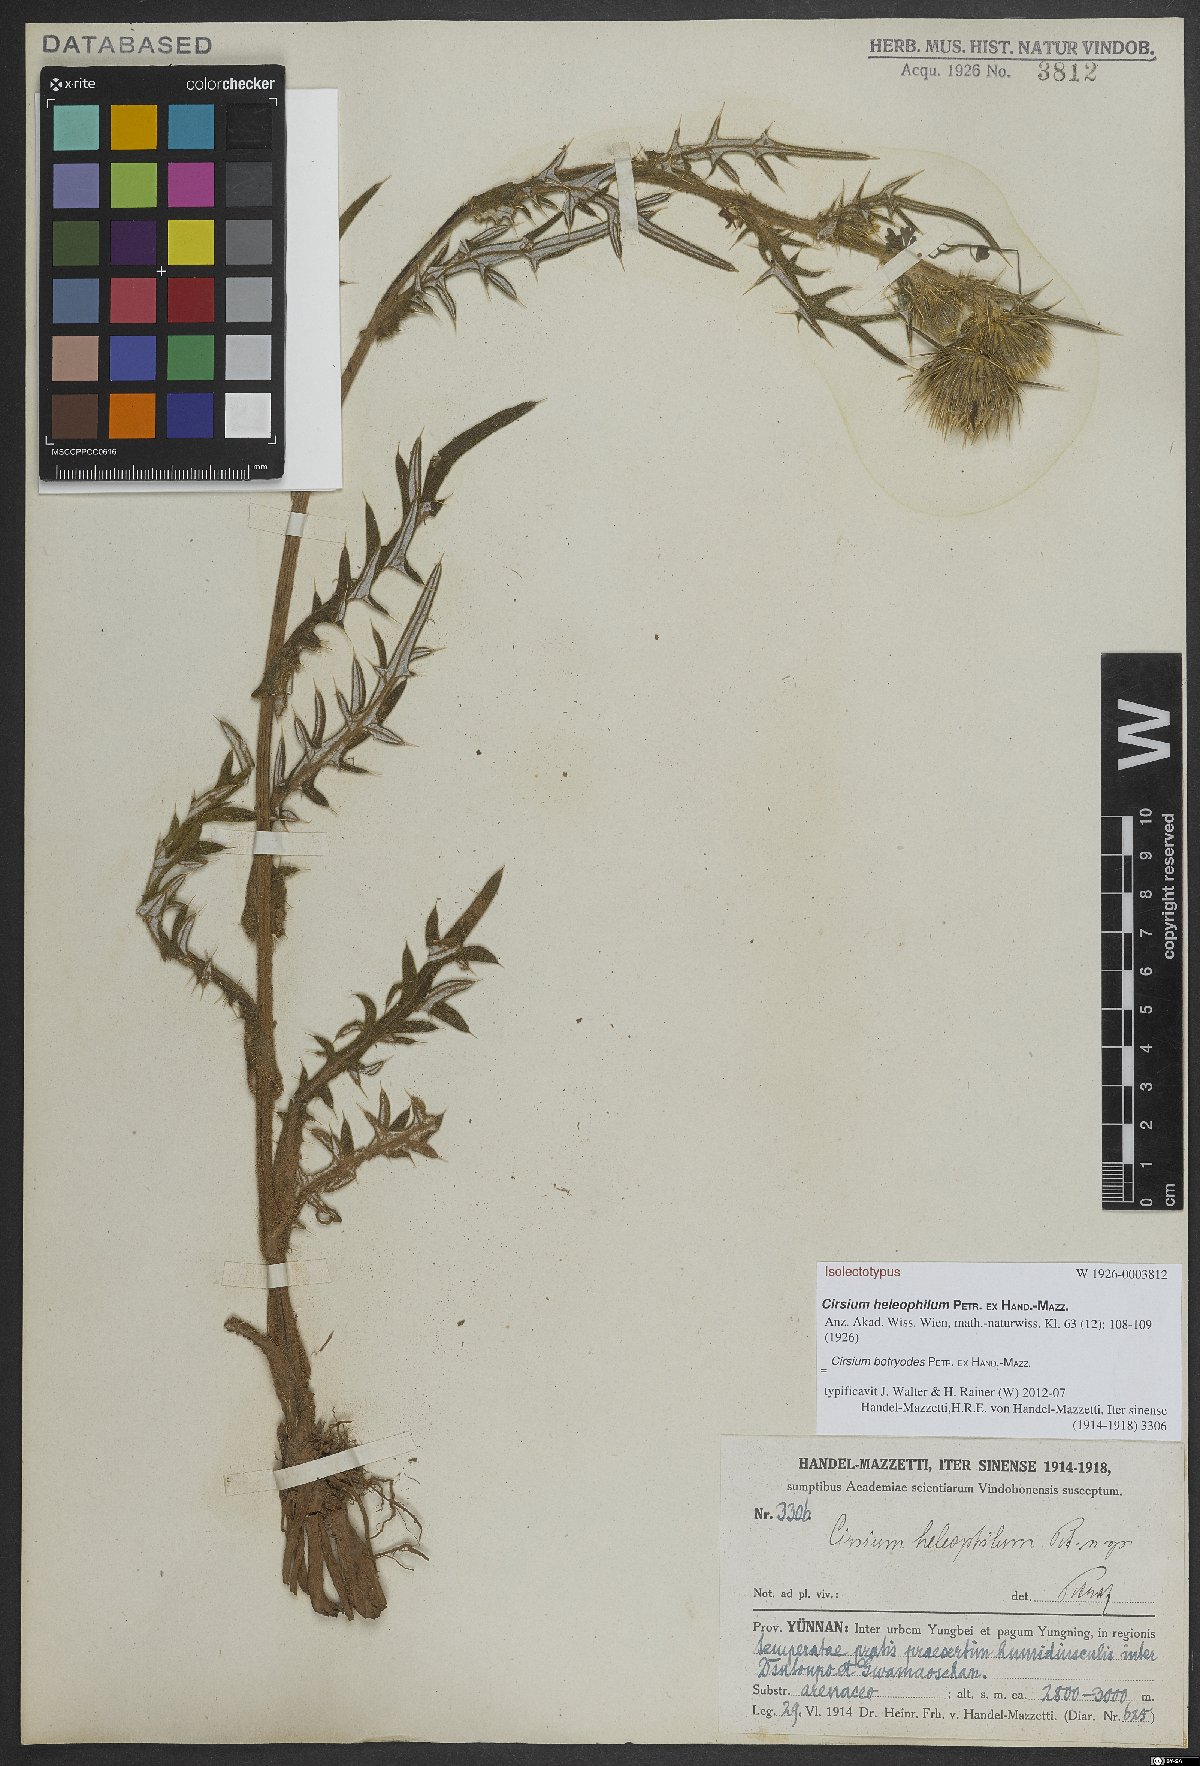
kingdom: Plantae
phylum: Tracheophyta
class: Magnoliopsida
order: Asterales
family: Asteraceae
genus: Cirsium
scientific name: Cirsium botryodes
